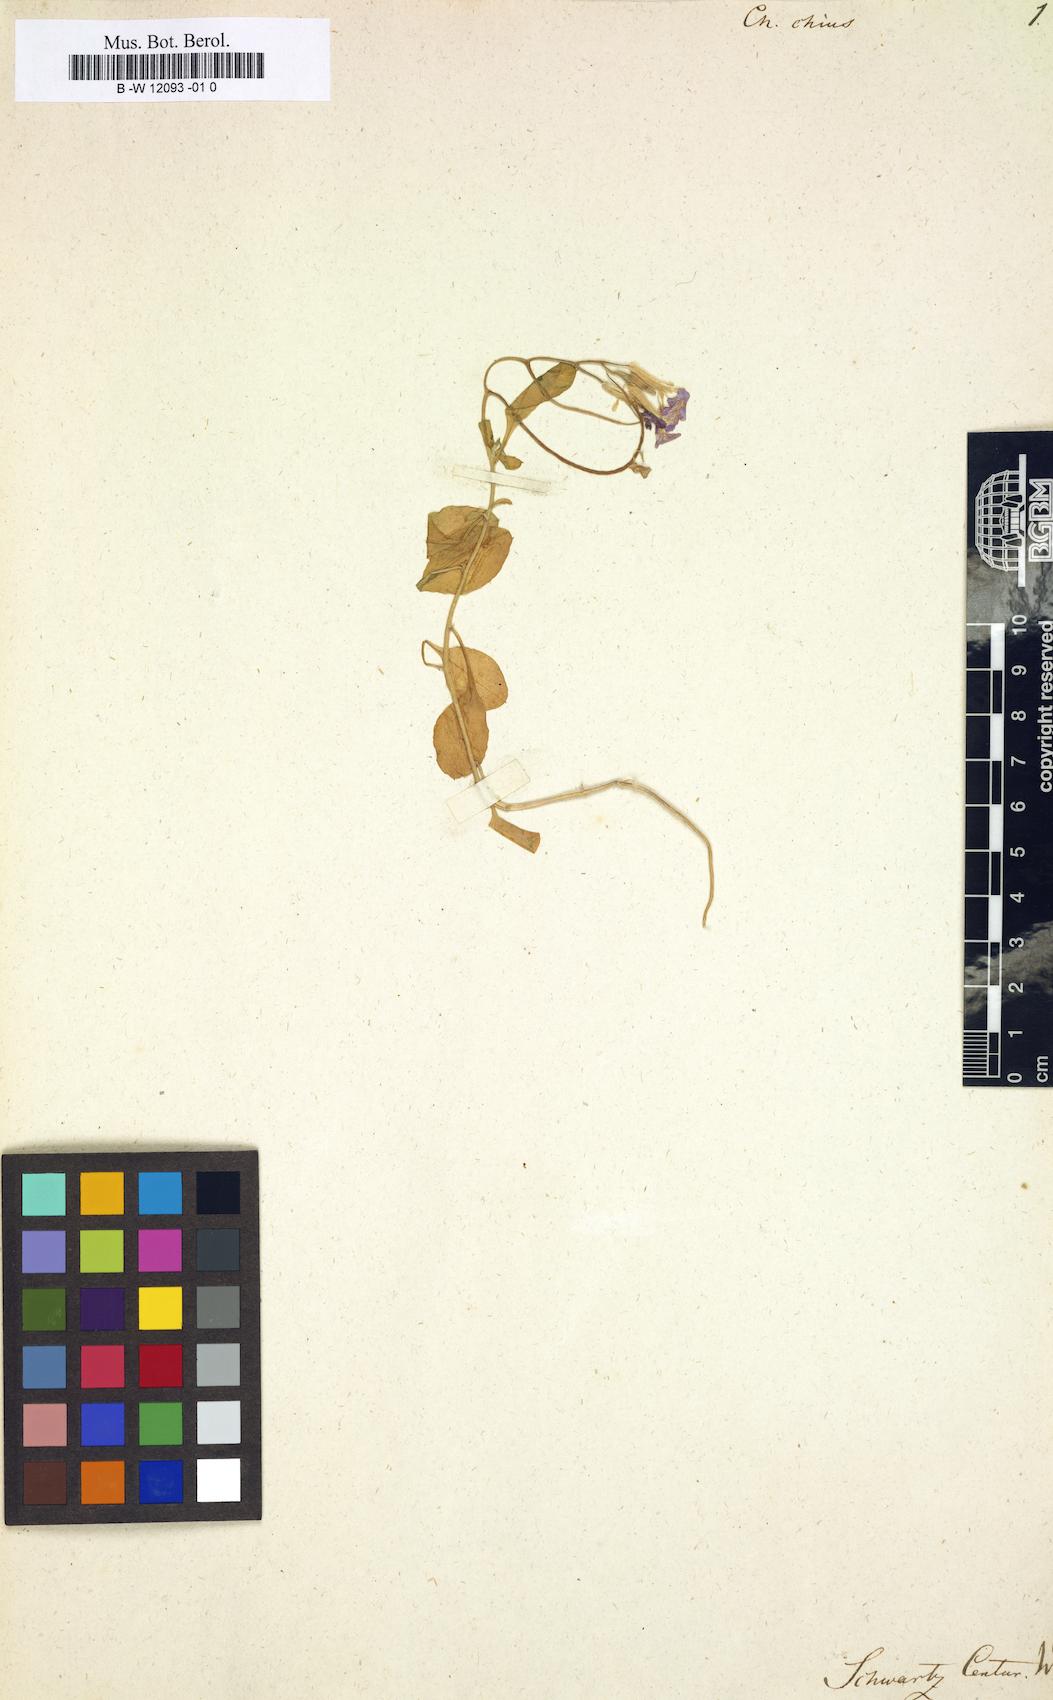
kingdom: Plantae
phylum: Tracheophyta
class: Magnoliopsida
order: Brassicales
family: Brassicaceae
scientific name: Brassicaceae
